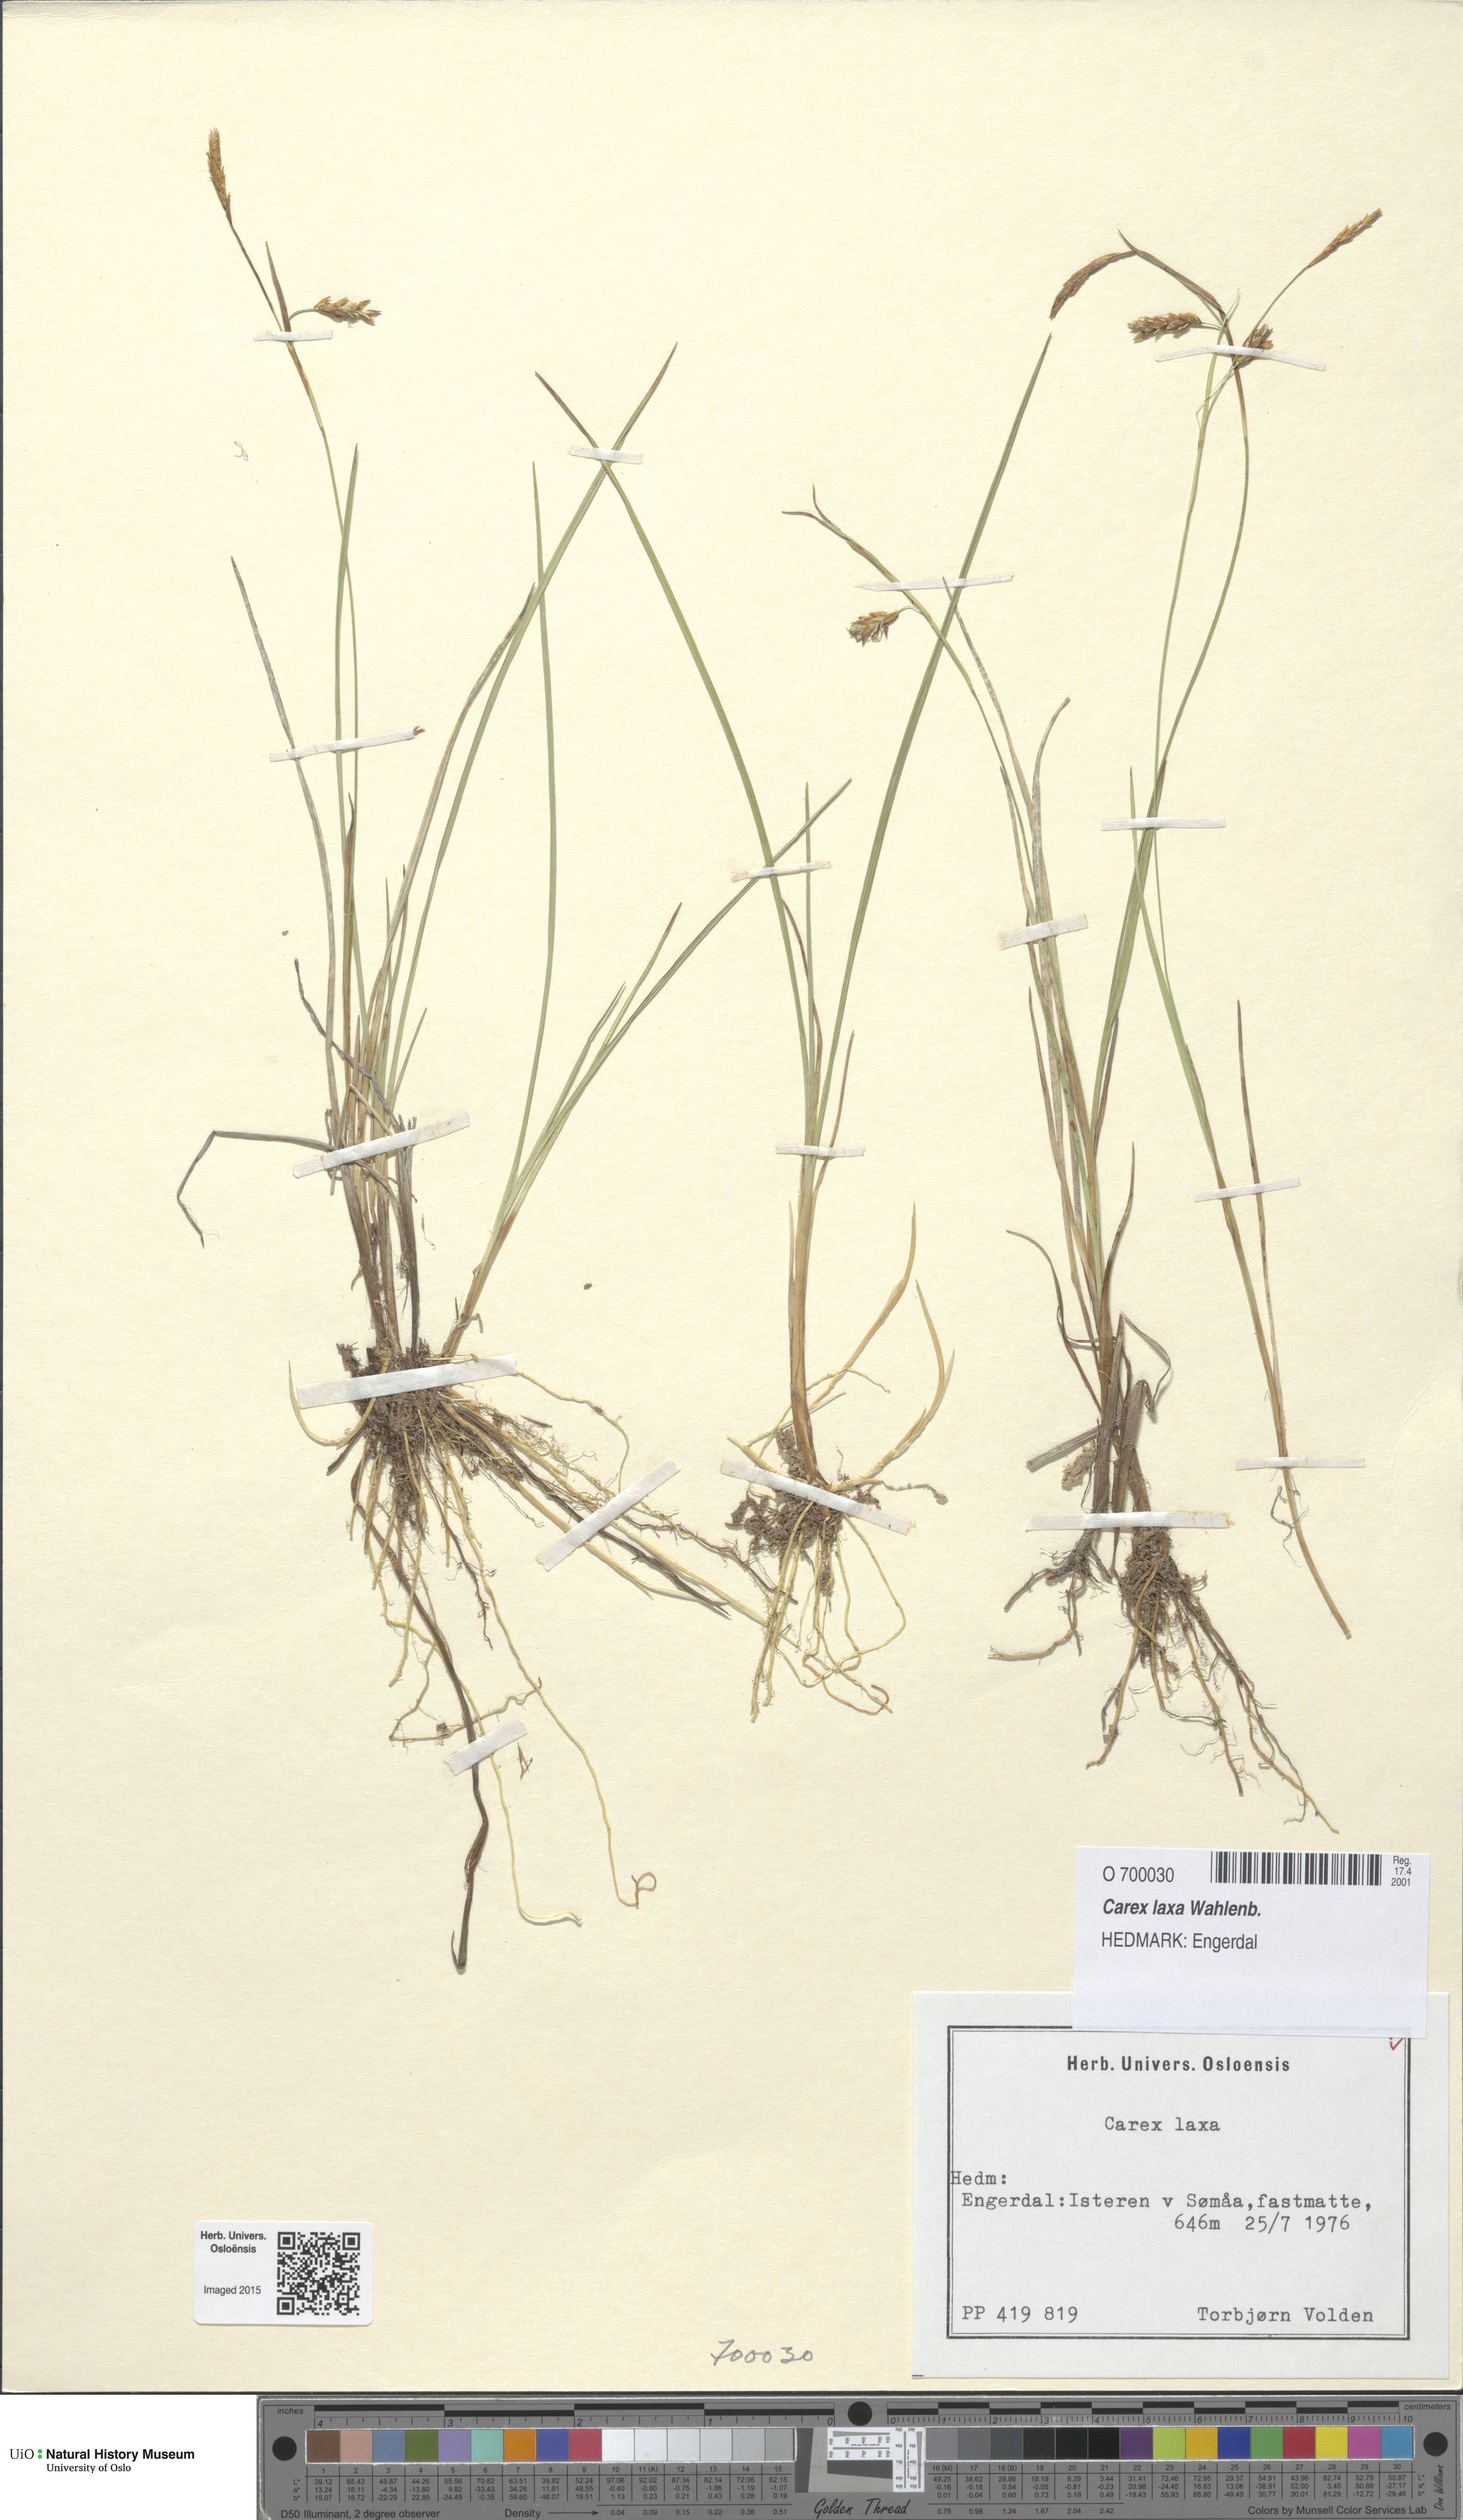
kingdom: Plantae
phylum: Tracheophyta
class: Liliopsida
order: Poales
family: Cyperaceae
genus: Carex
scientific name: Carex laxa
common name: Weak sedge
